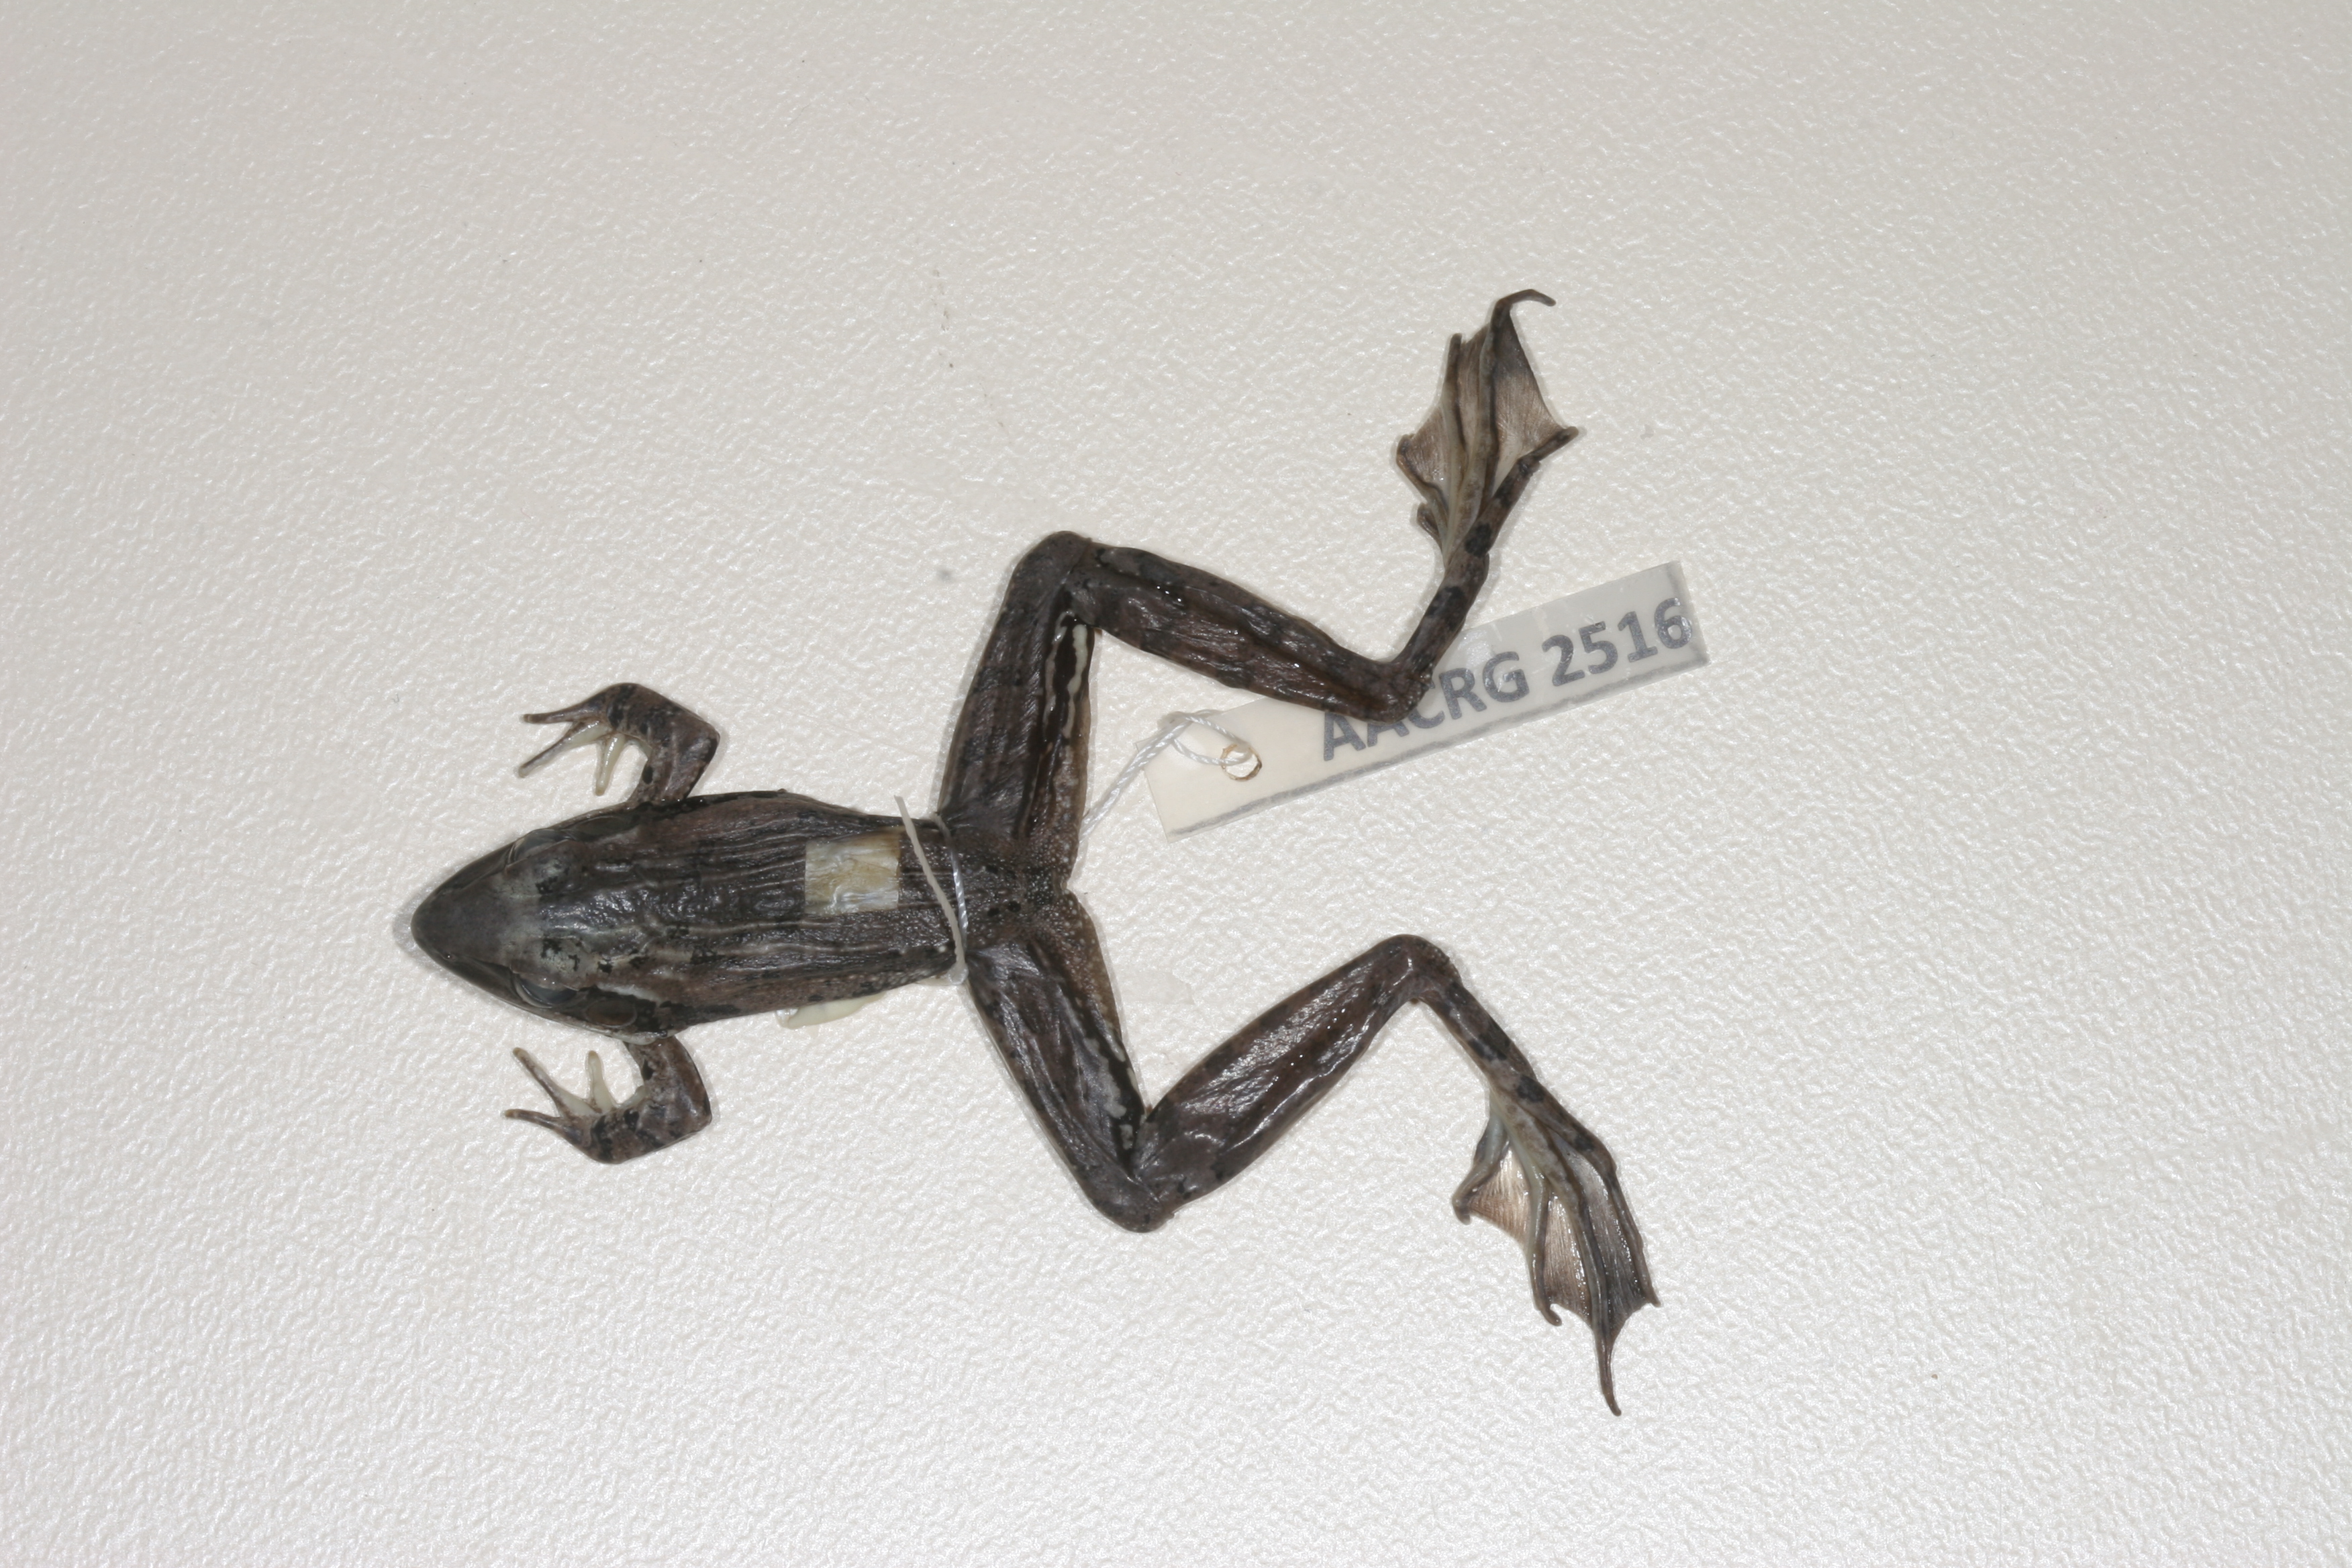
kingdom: Animalia
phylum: Chordata
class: Amphibia
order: Anura
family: Ptychadenidae
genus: Ptychadena
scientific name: Ptychadena anchietae
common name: Anchieta's ridged frog
